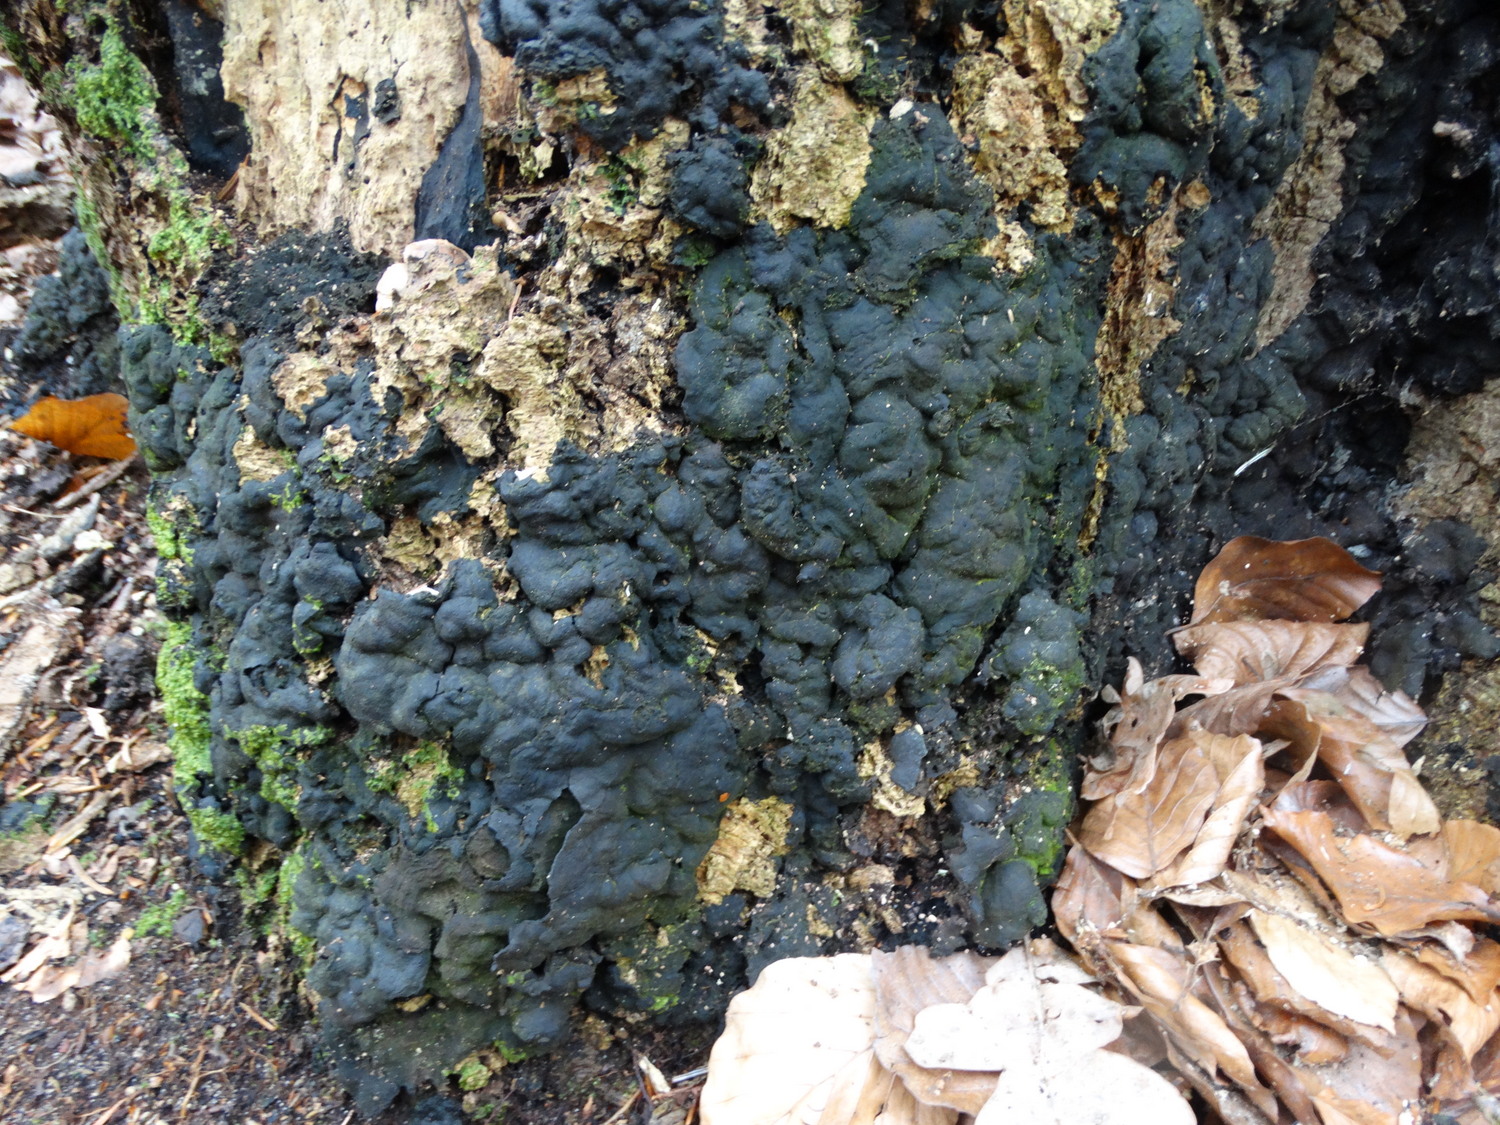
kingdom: Fungi
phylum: Ascomycota
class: Sordariomycetes
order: Xylariales
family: Xylariaceae
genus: Kretzschmaria
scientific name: Kretzschmaria deusta
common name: stor kulsvamp
